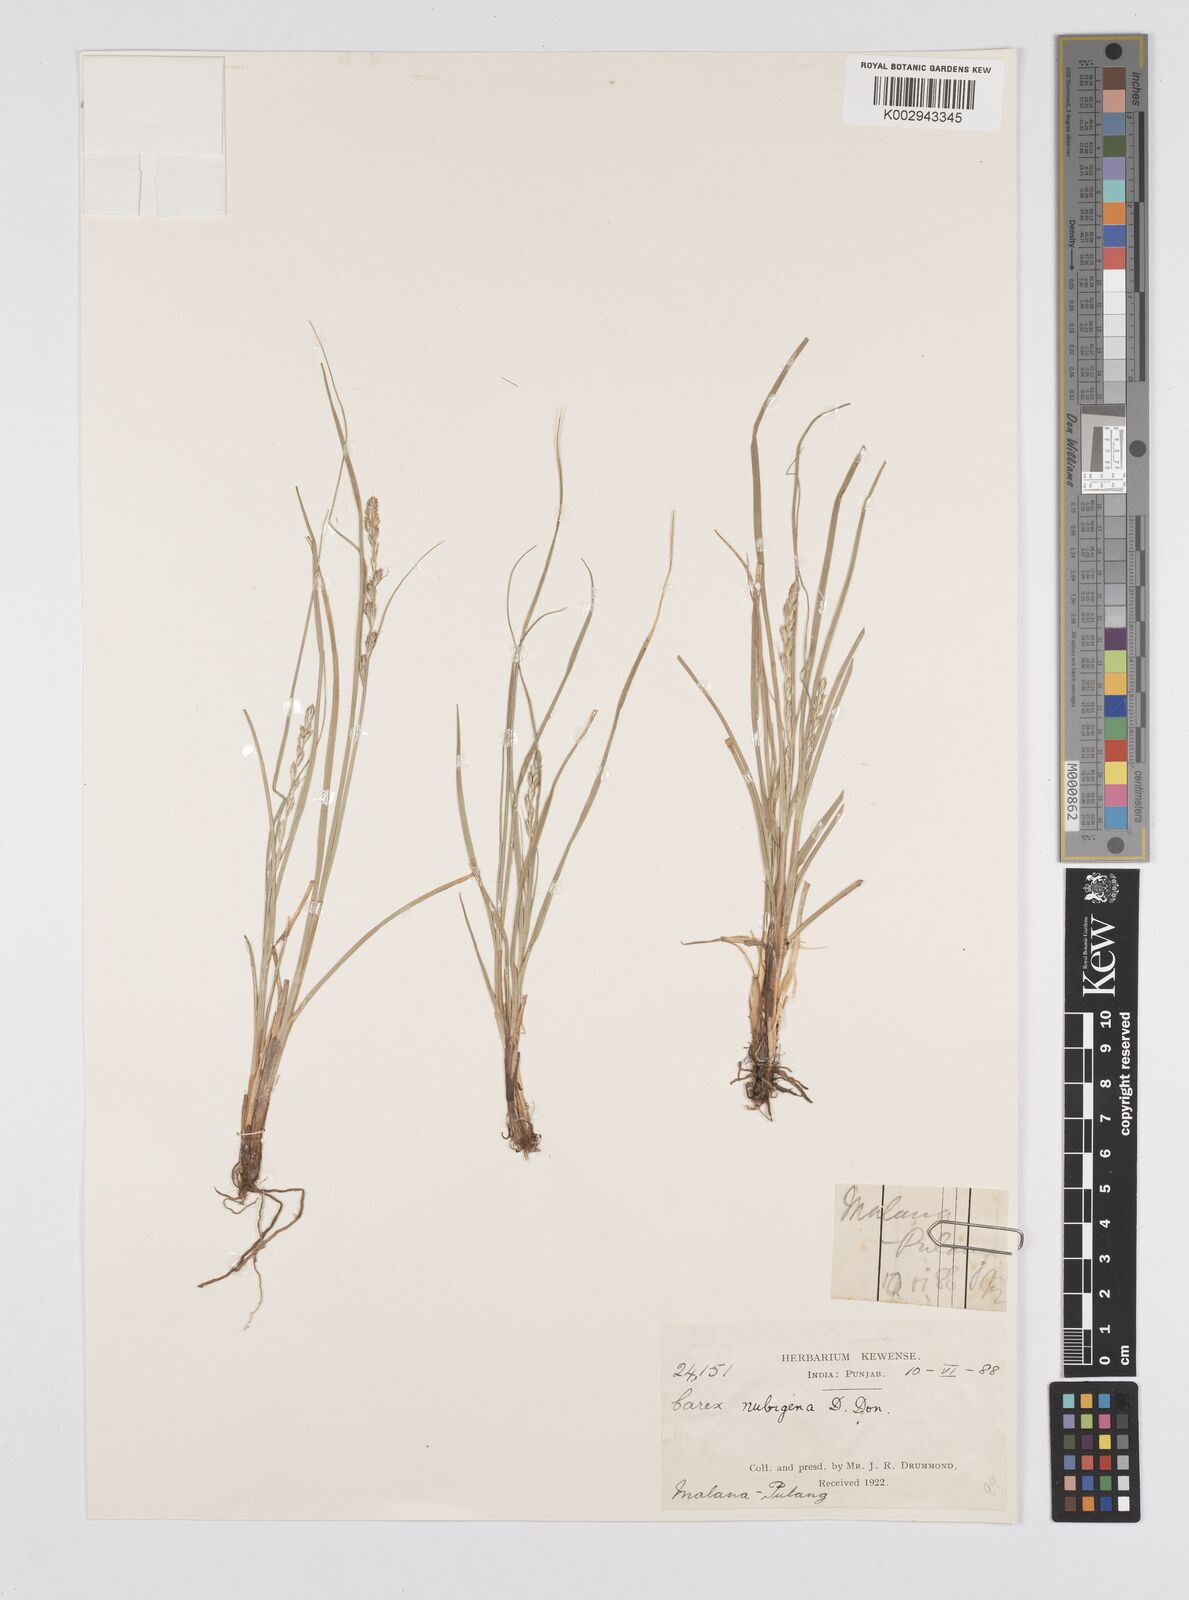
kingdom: Plantae
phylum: Tracheophyta
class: Liliopsida
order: Poales
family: Cyperaceae
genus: Carex
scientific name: Carex nubigena
